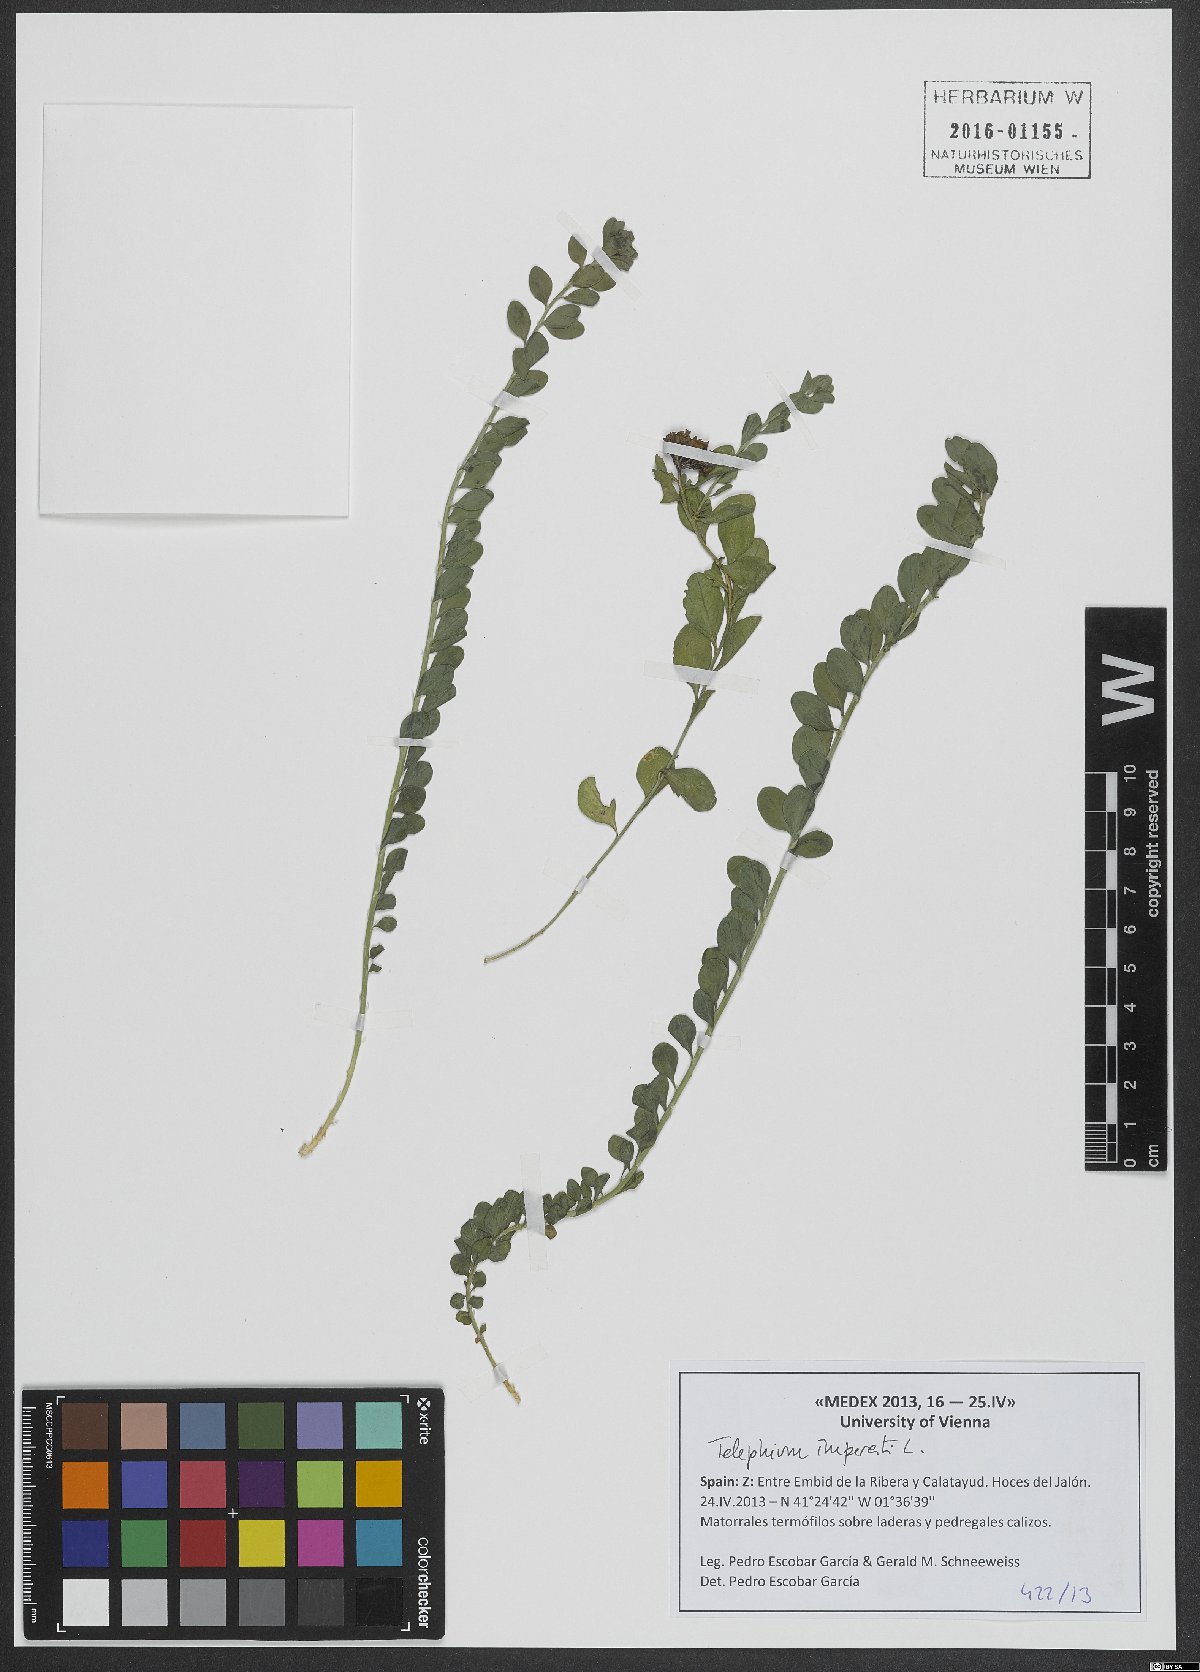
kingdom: Plantae
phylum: Tracheophyta
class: Magnoliopsida
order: Caryophyllales
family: Caryophyllaceae
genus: Telephium
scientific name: Telephium imperati
